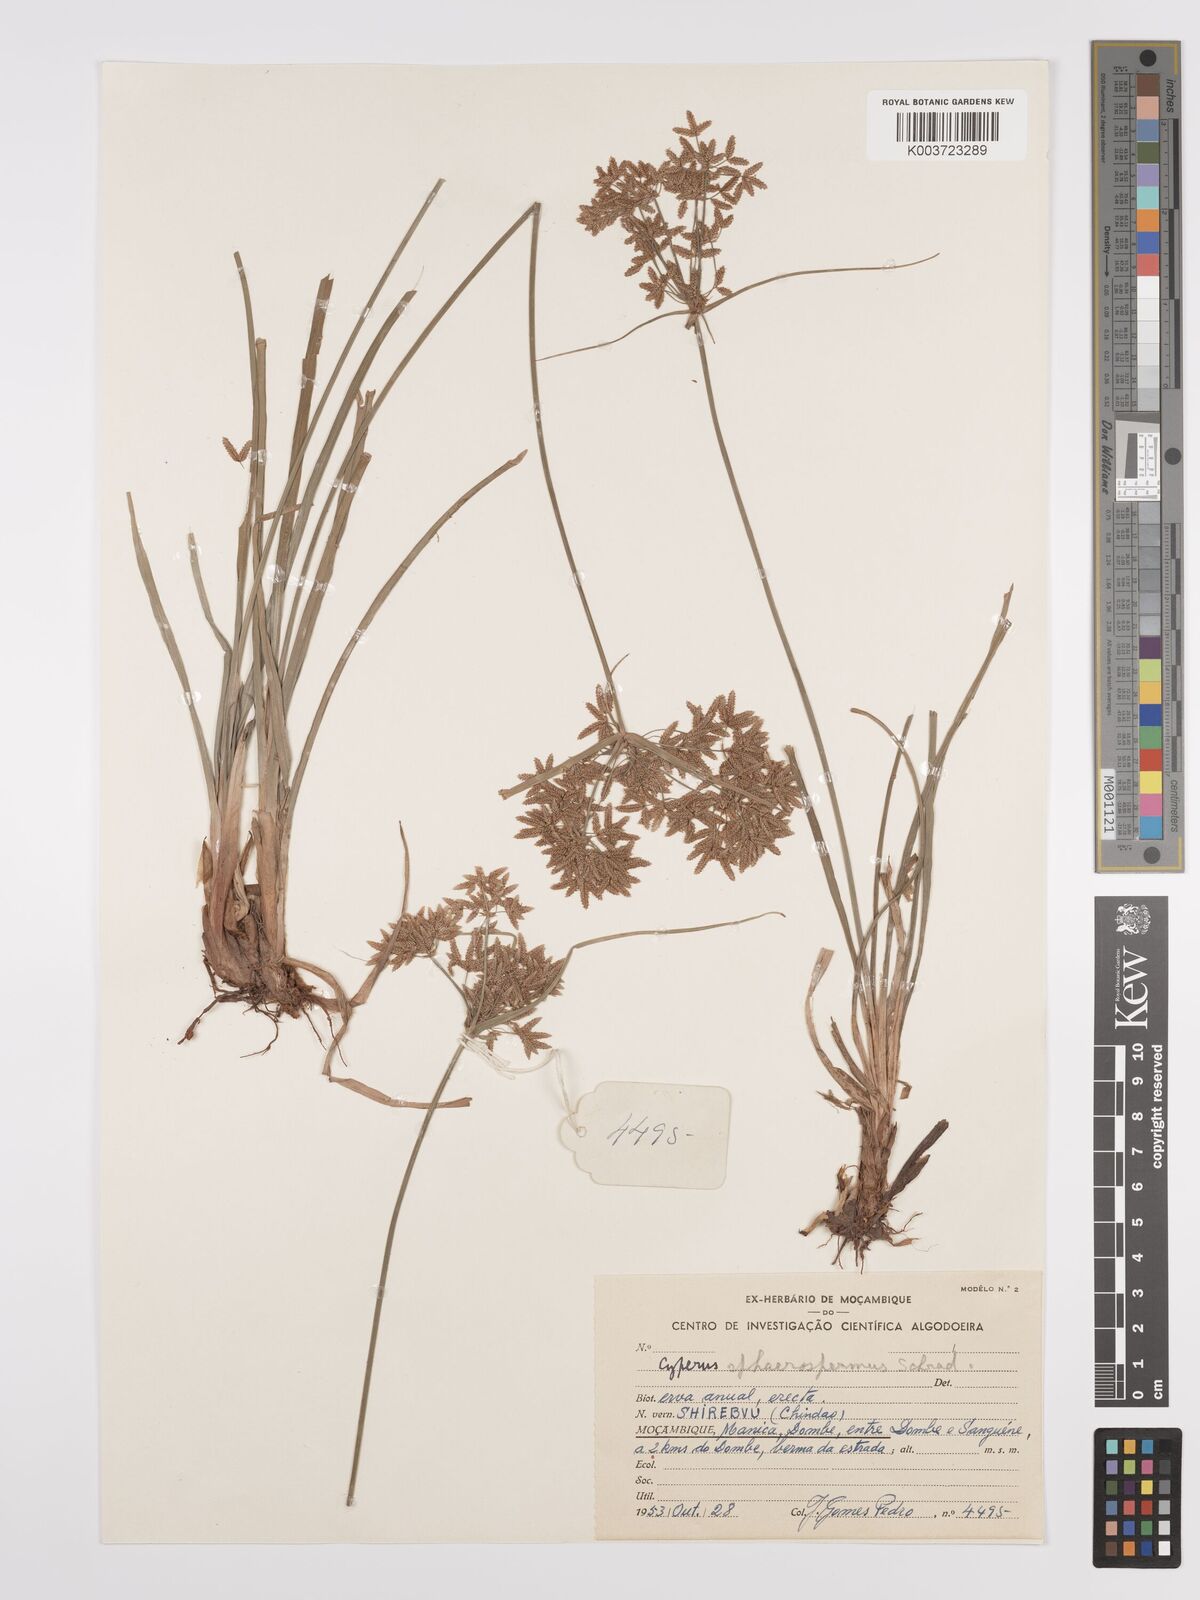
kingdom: Plantae
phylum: Tracheophyta
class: Liliopsida
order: Poales
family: Cyperaceae
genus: Cyperus
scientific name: Cyperus denudatus
